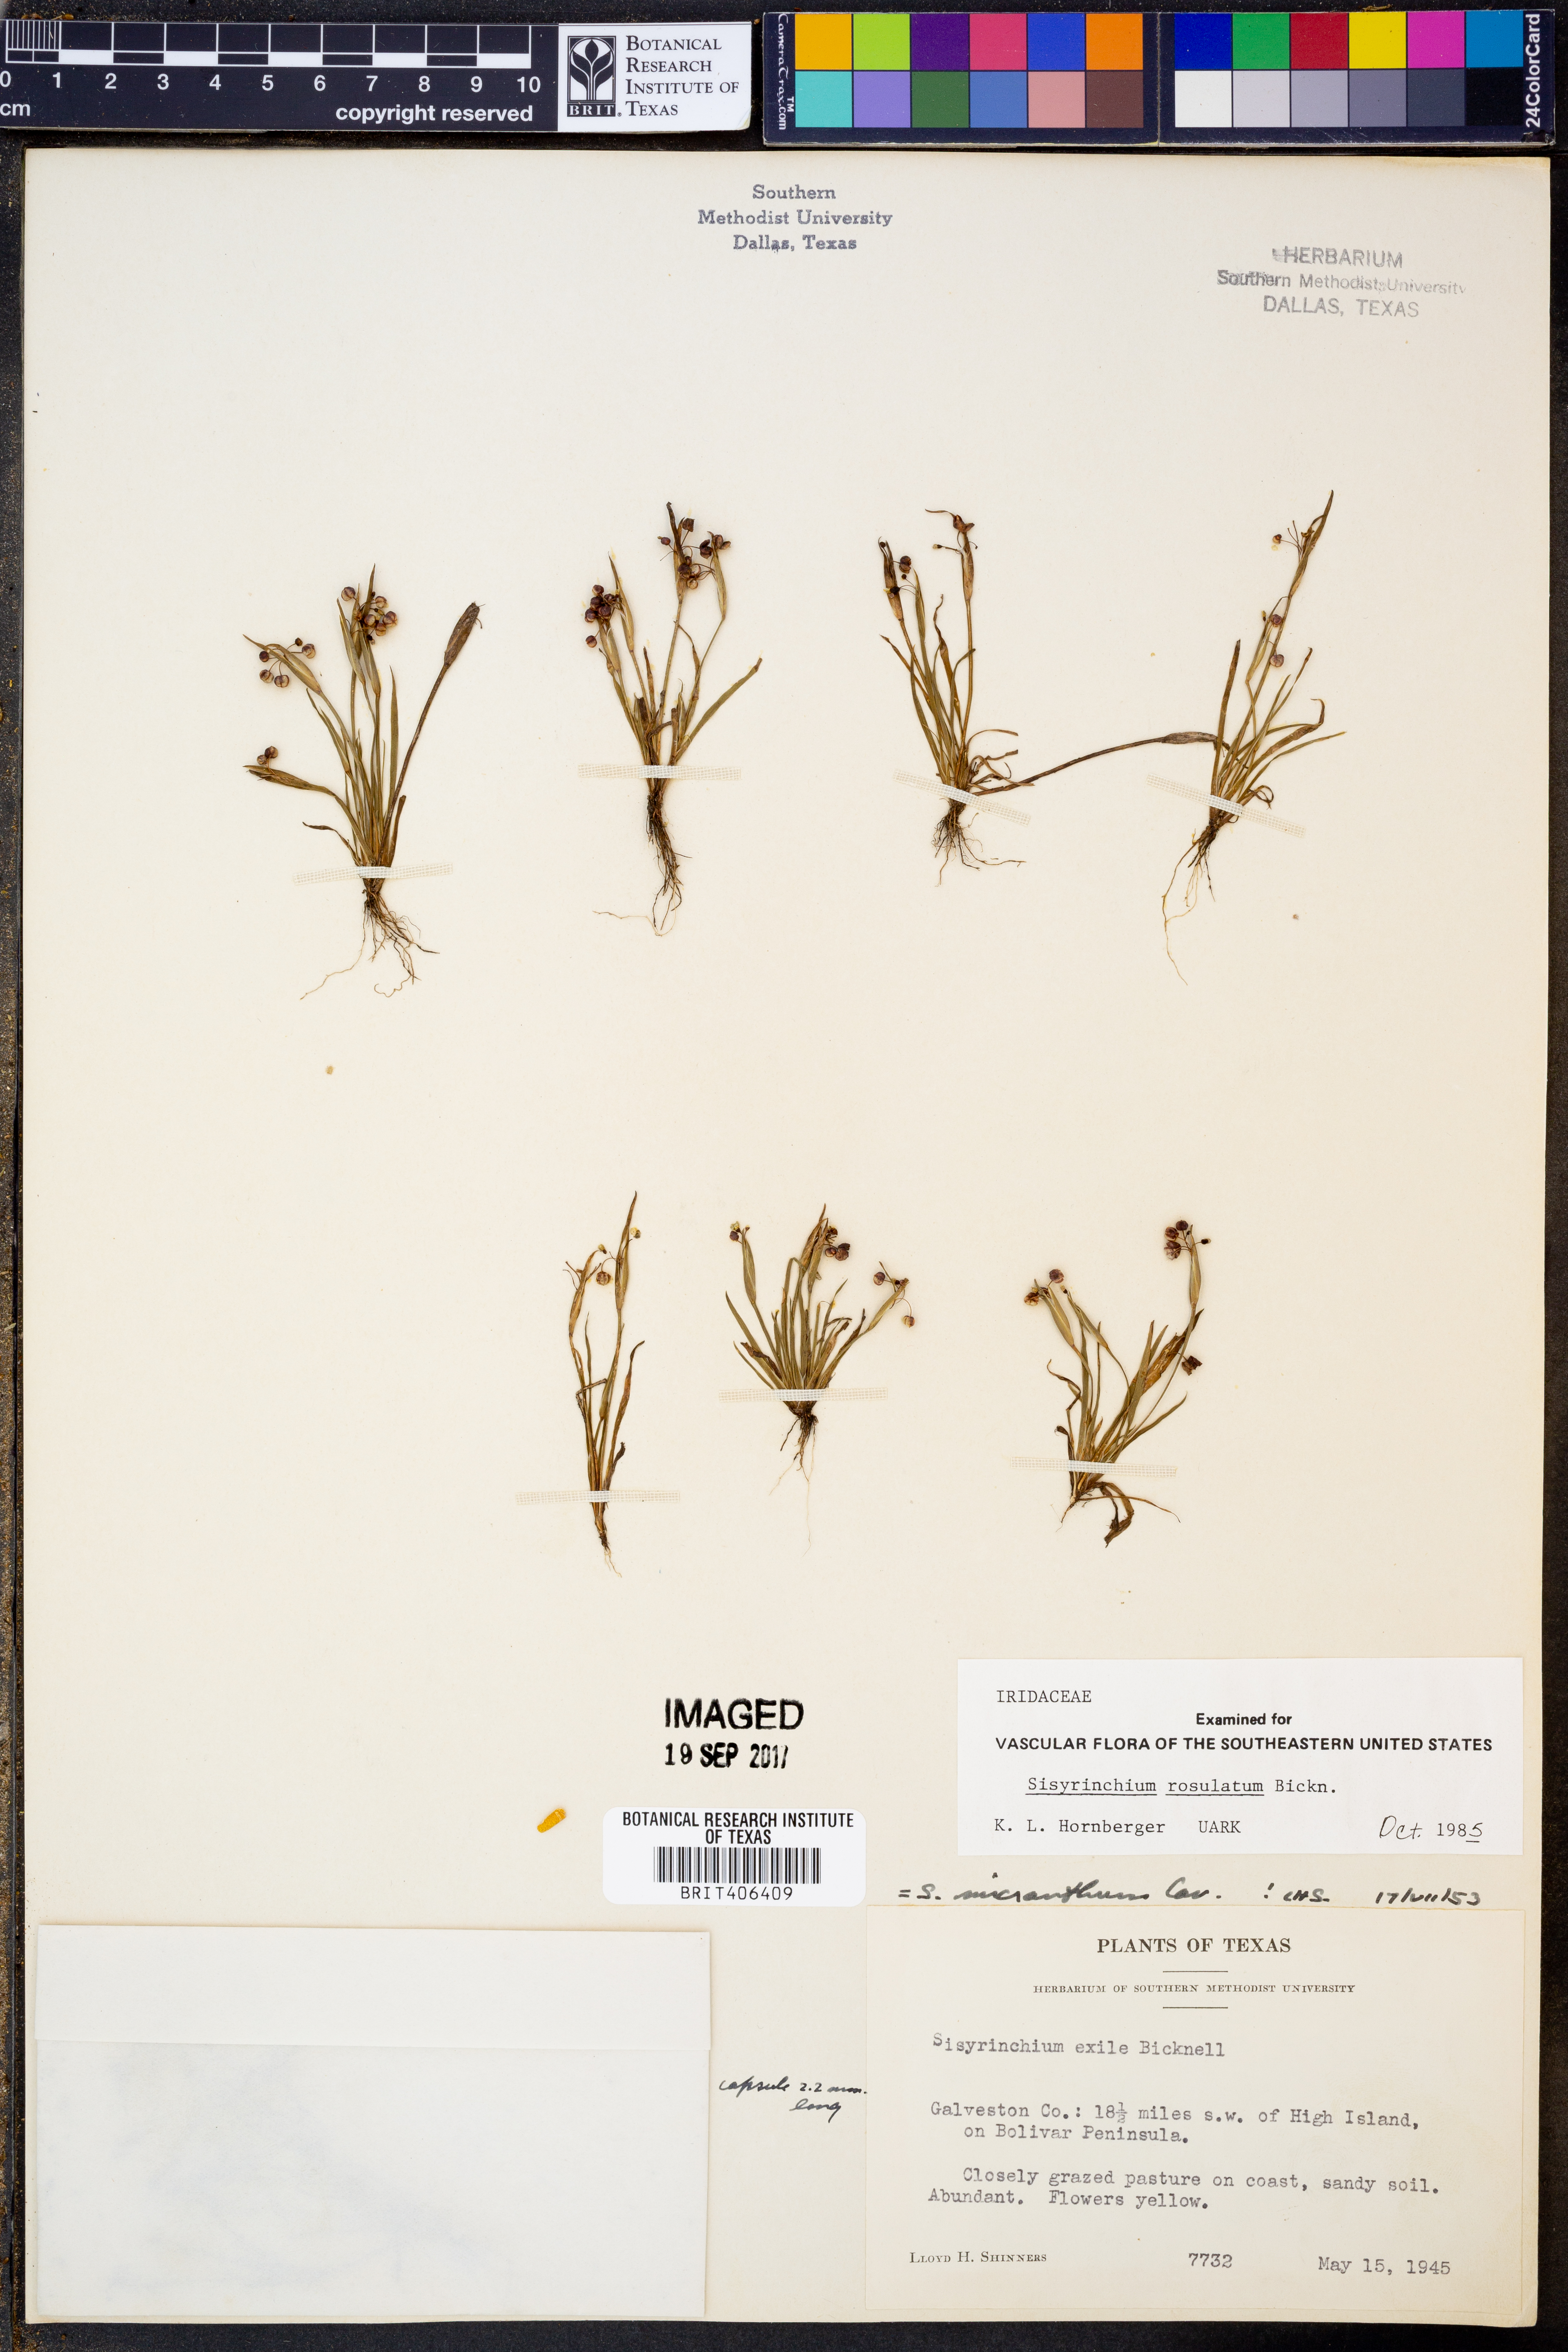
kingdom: Plantae
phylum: Tracheophyta
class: Liliopsida
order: Asparagales
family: Iridaceae
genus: Sisyrinchium
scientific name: Sisyrinchium rosulatum
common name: Annual blue-eyed grass
